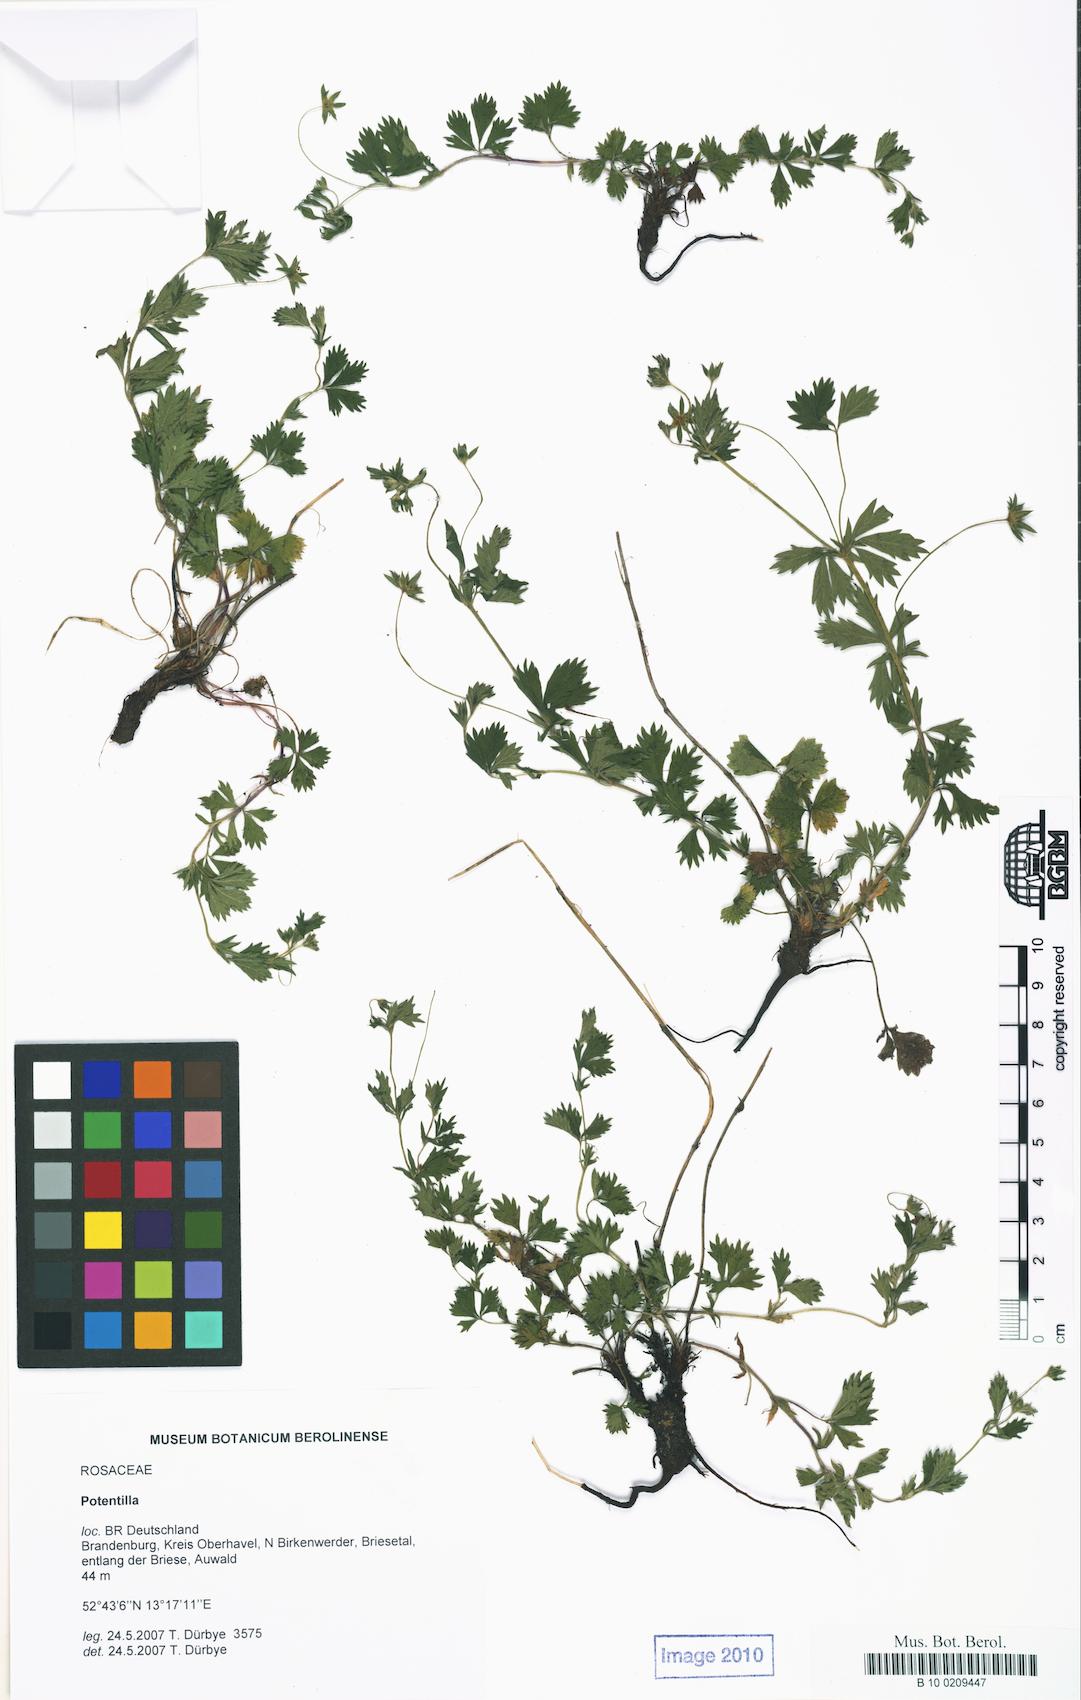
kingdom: Plantae
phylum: Tracheophyta
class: Magnoliopsida
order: Rosales
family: Rosaceae
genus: Potentilla
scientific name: Potentilla
